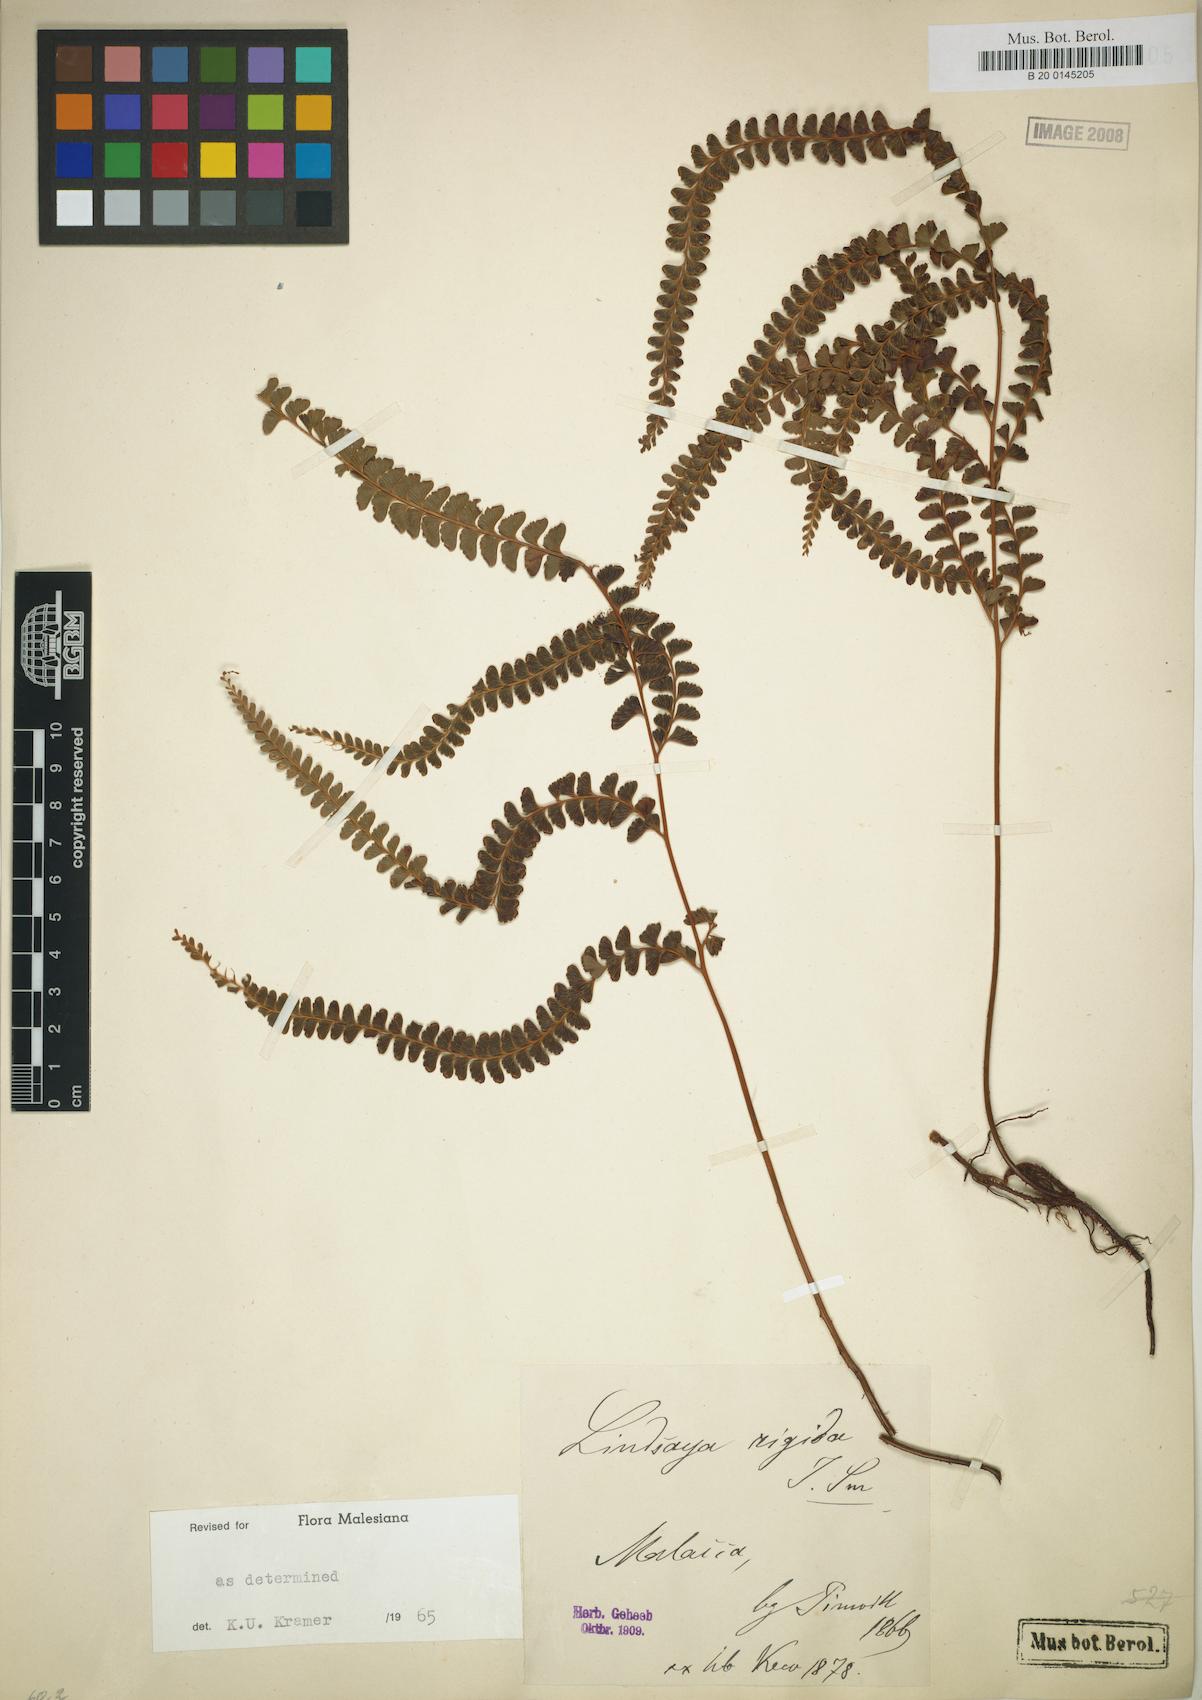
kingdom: Plantae
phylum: Tracheophyta
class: Polypodiopsida
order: Polypodiales
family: Lindsaeaceae
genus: Lindsaea
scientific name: Lindsaea rigida
